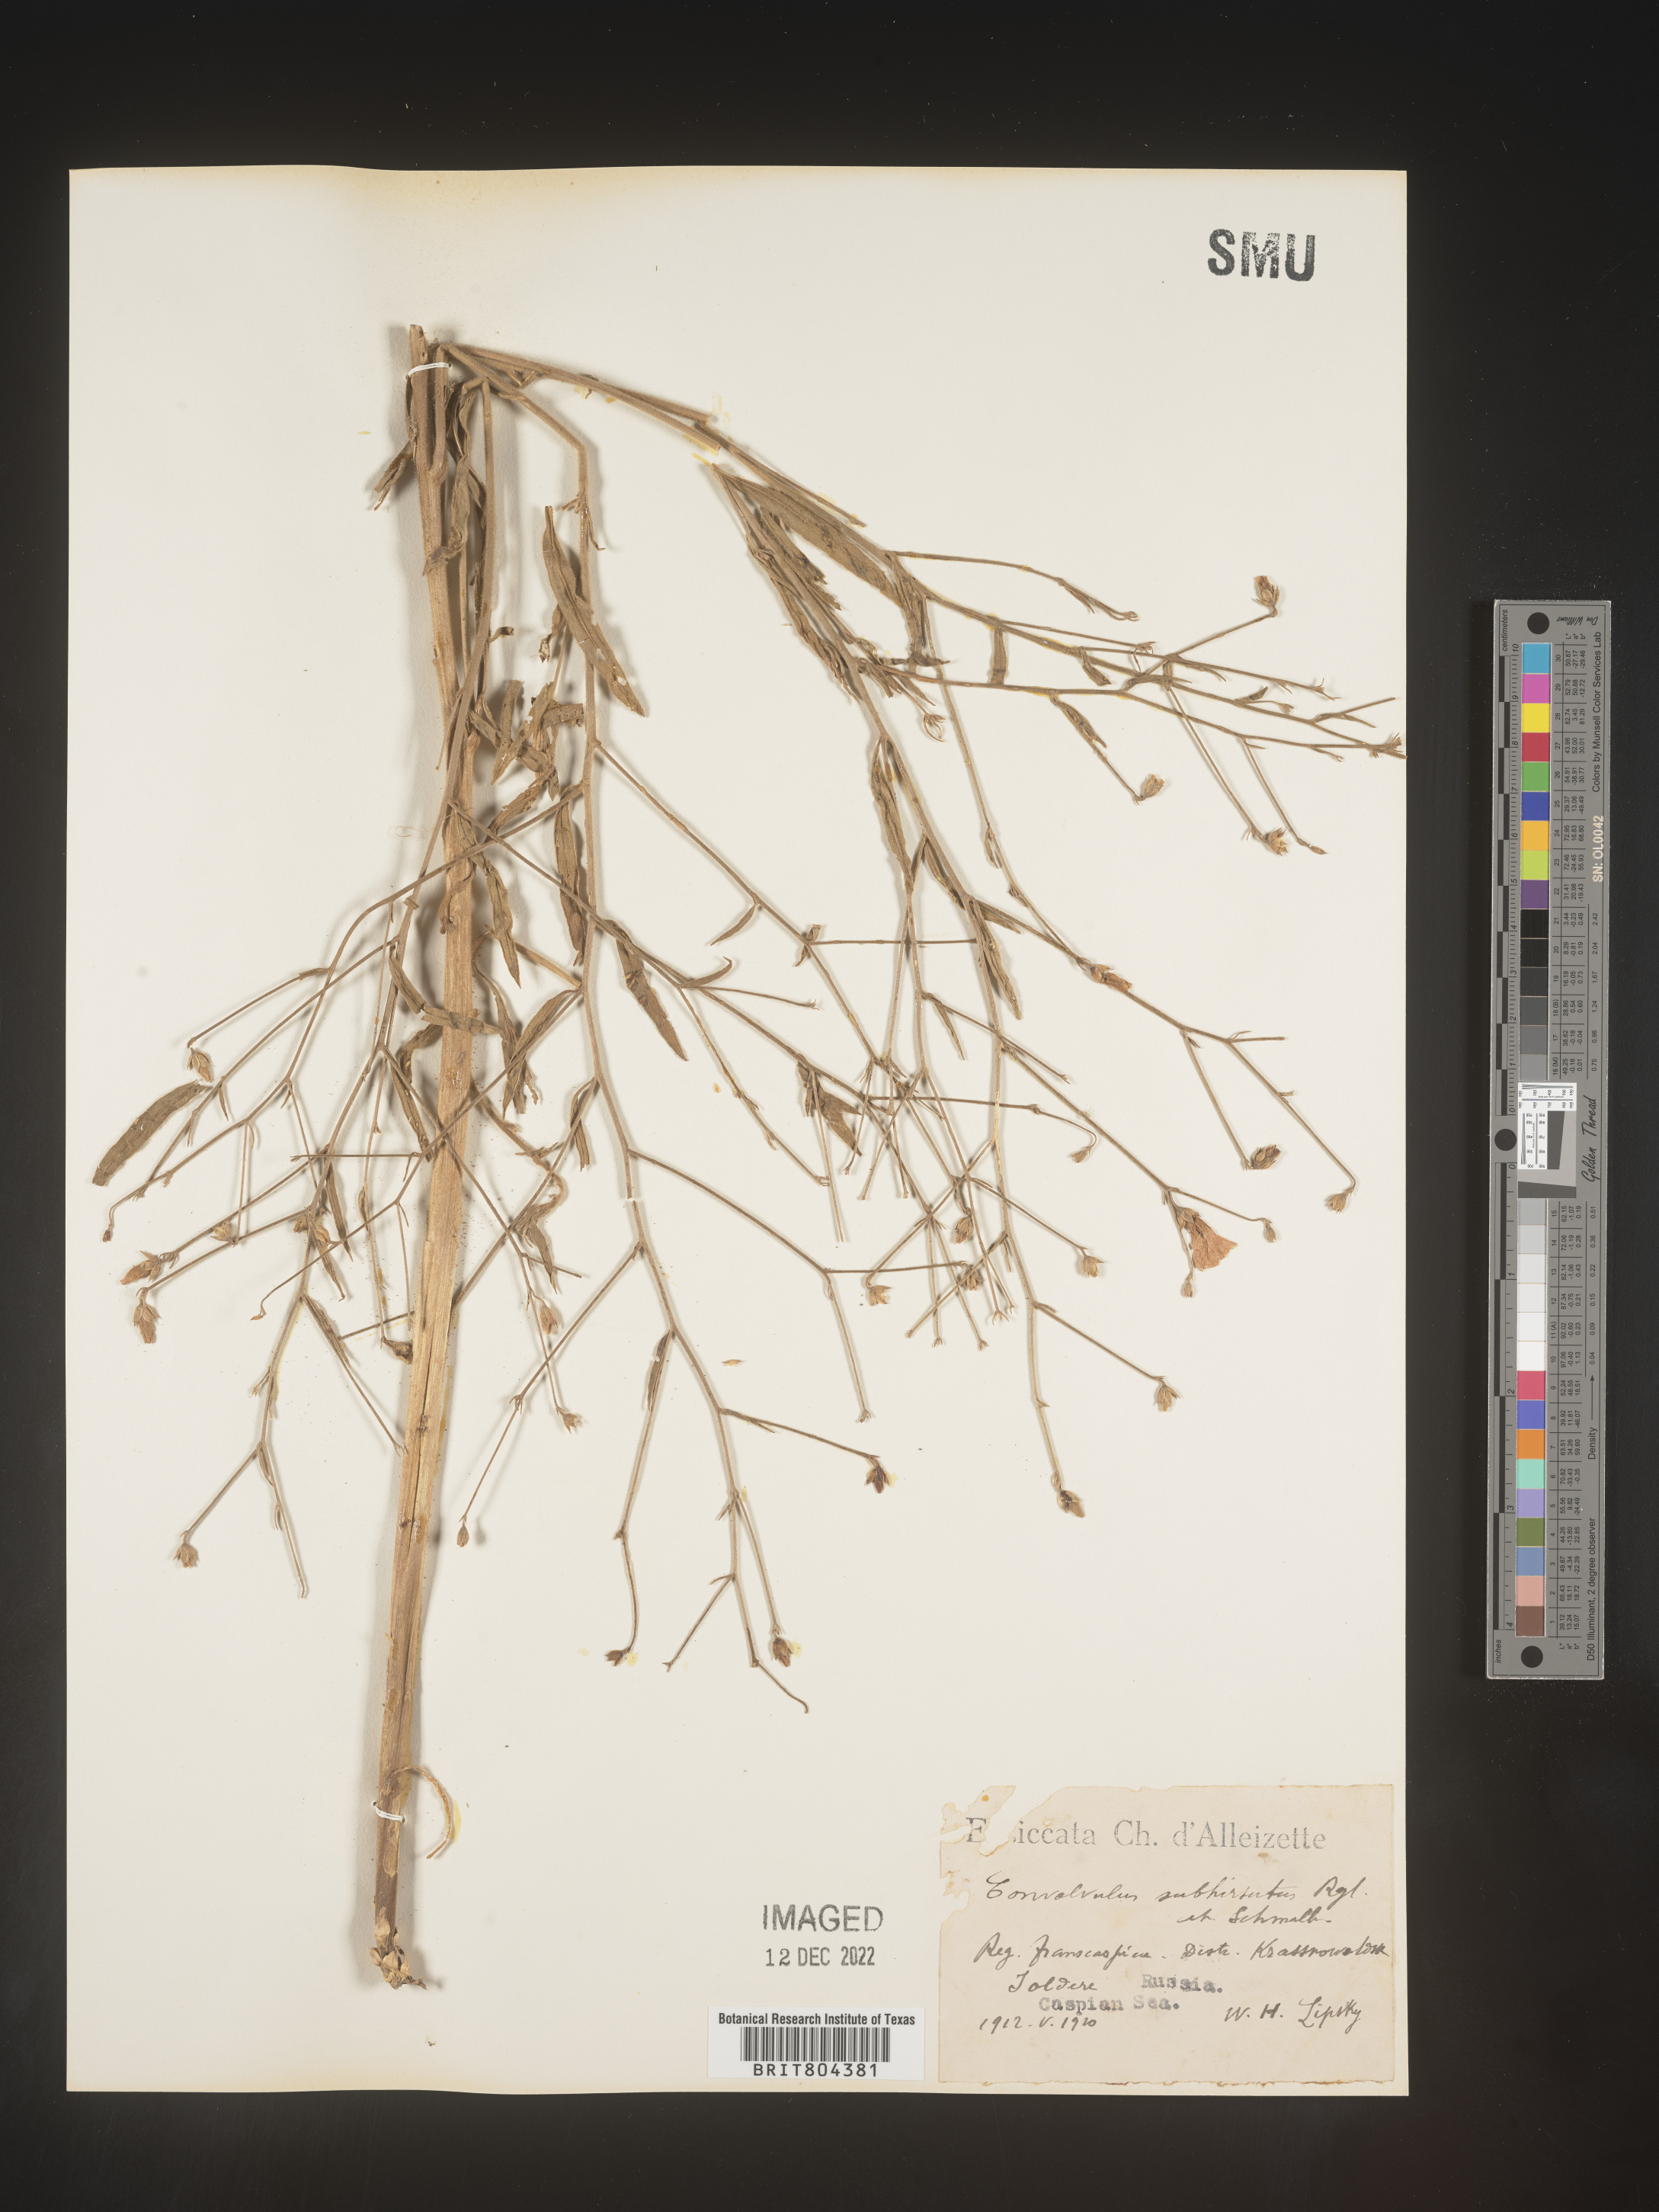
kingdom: Plantae
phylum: Tracheophyta
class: Magnoliopsida
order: Solanales
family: Convolvulaceae
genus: Convolvulus
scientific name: Convolvulus
